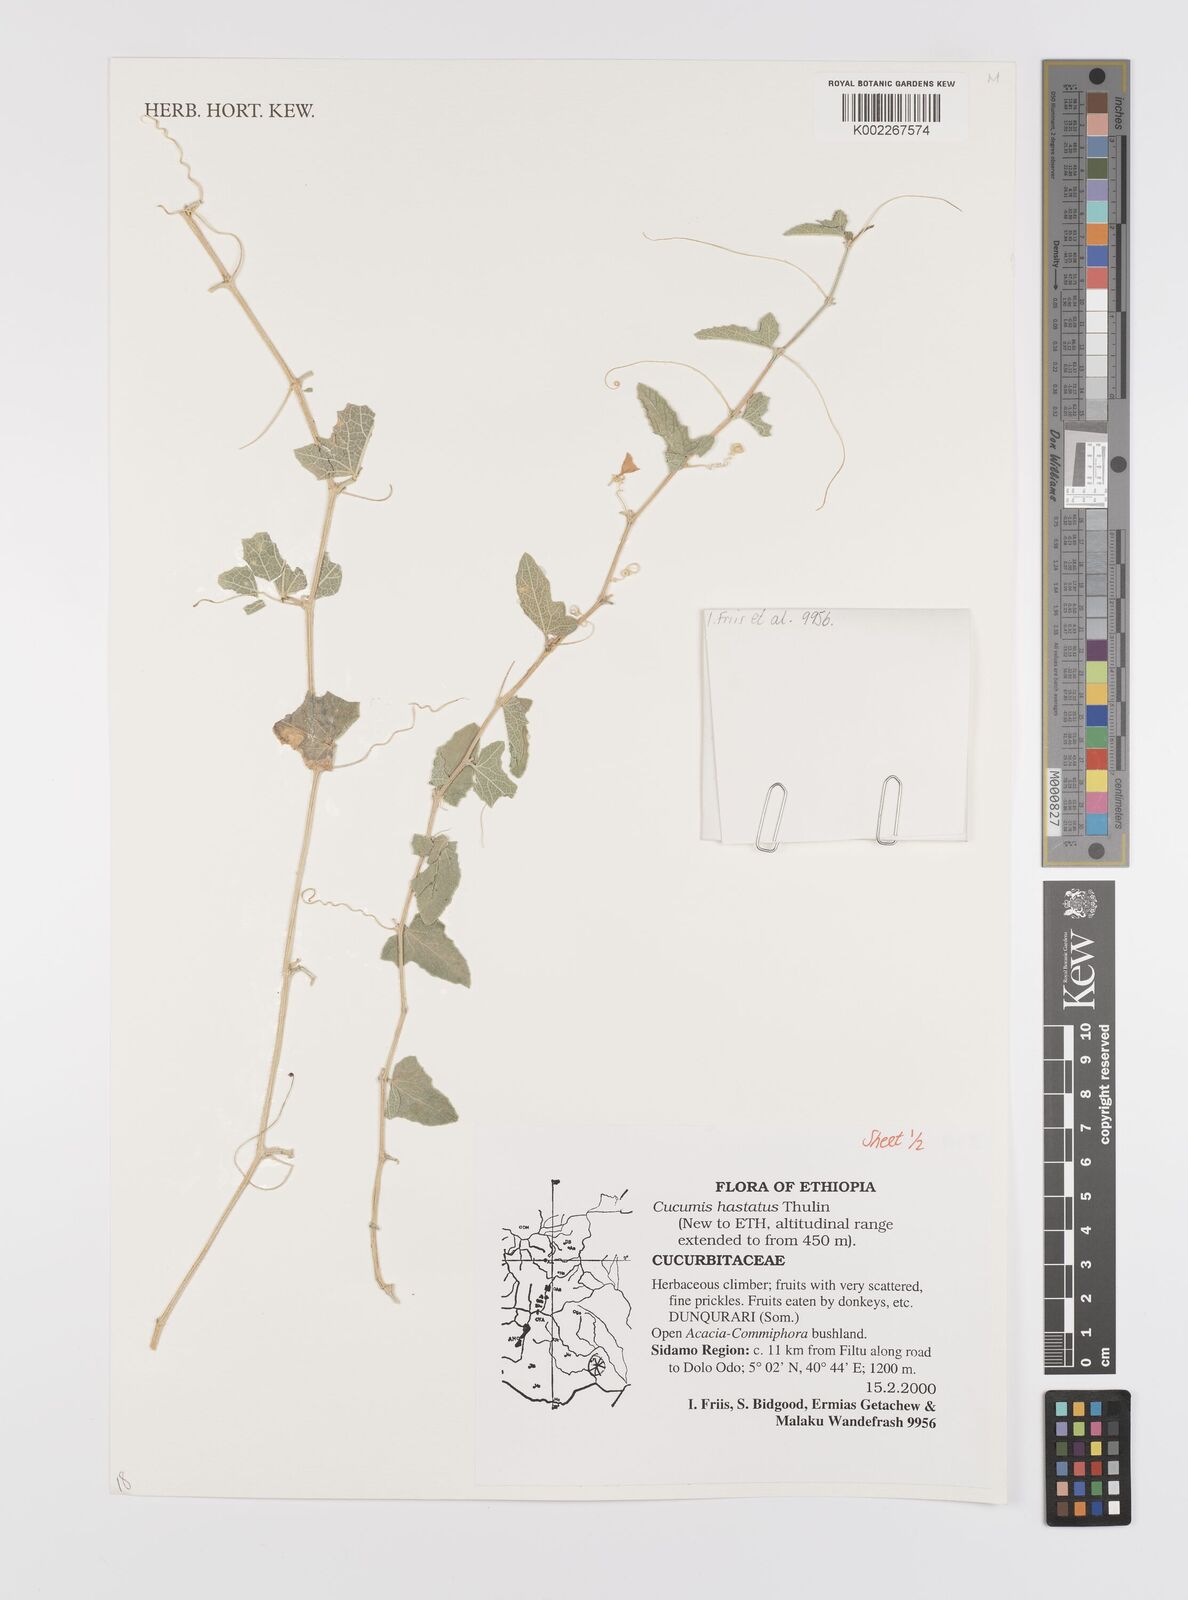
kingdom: Plantae
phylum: Tracheophyta
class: Magnoliopsida
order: Cucurbitales
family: Cucurbitaceae
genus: Cucumis
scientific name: Cucumis hastatus
